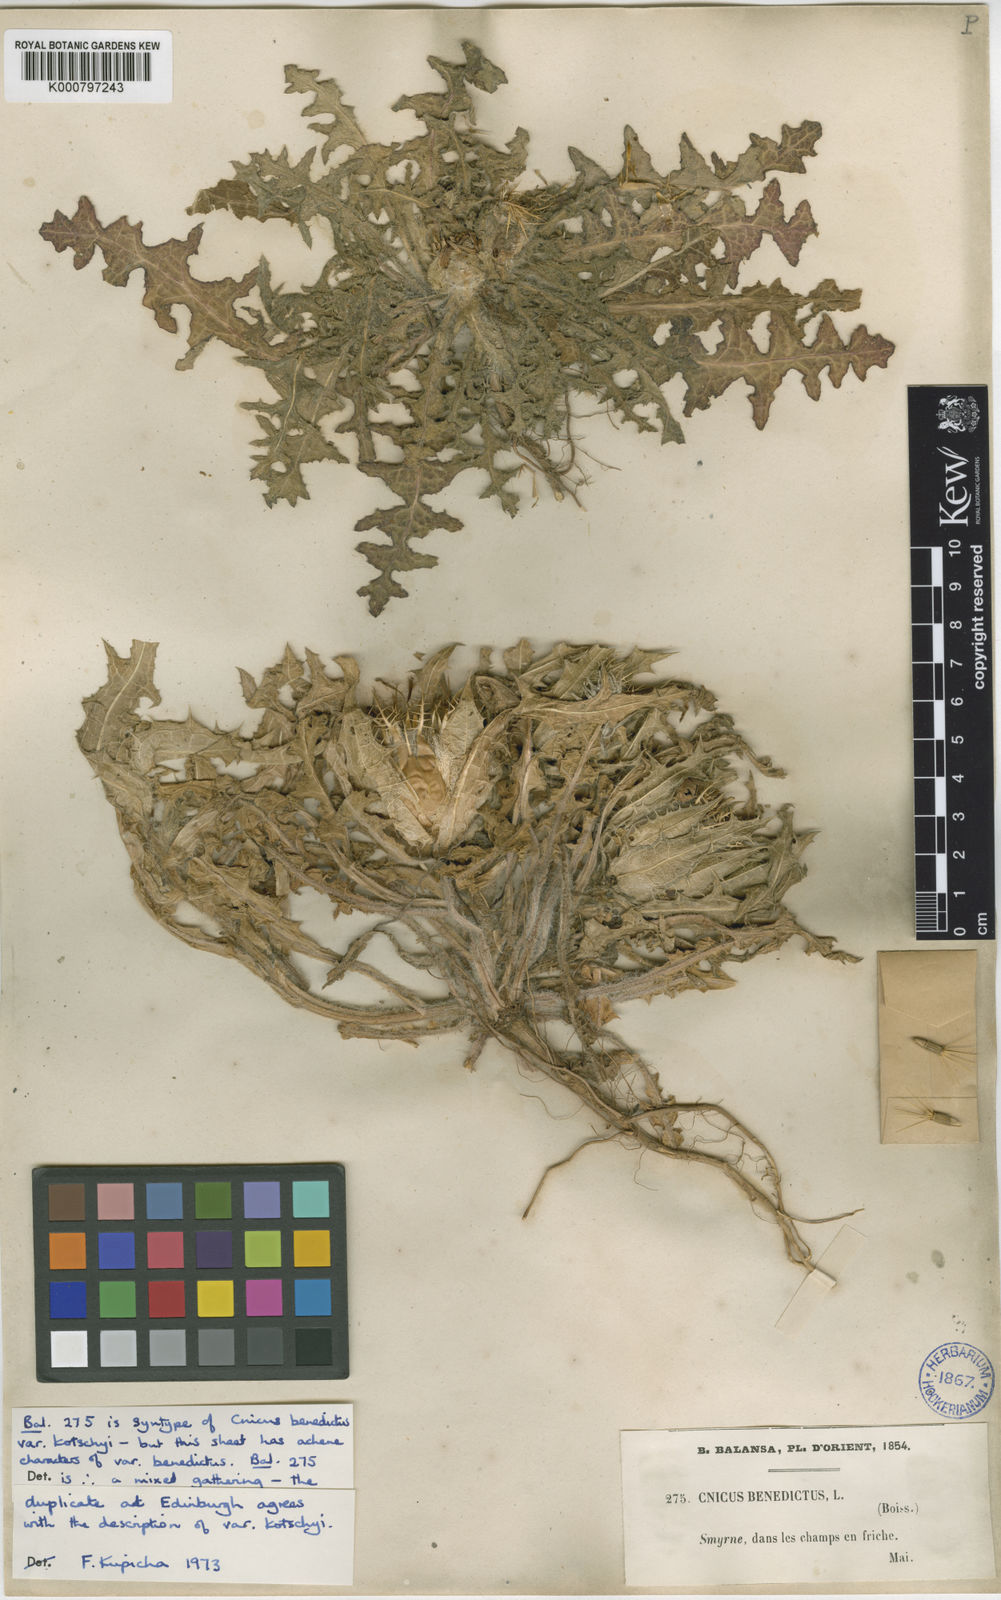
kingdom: Plantae
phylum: Tracheophyta
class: Magnoliopsida
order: Asterales
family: Asteraceae
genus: Centaurea
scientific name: Centaurea benedicta
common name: Blessed thistle
